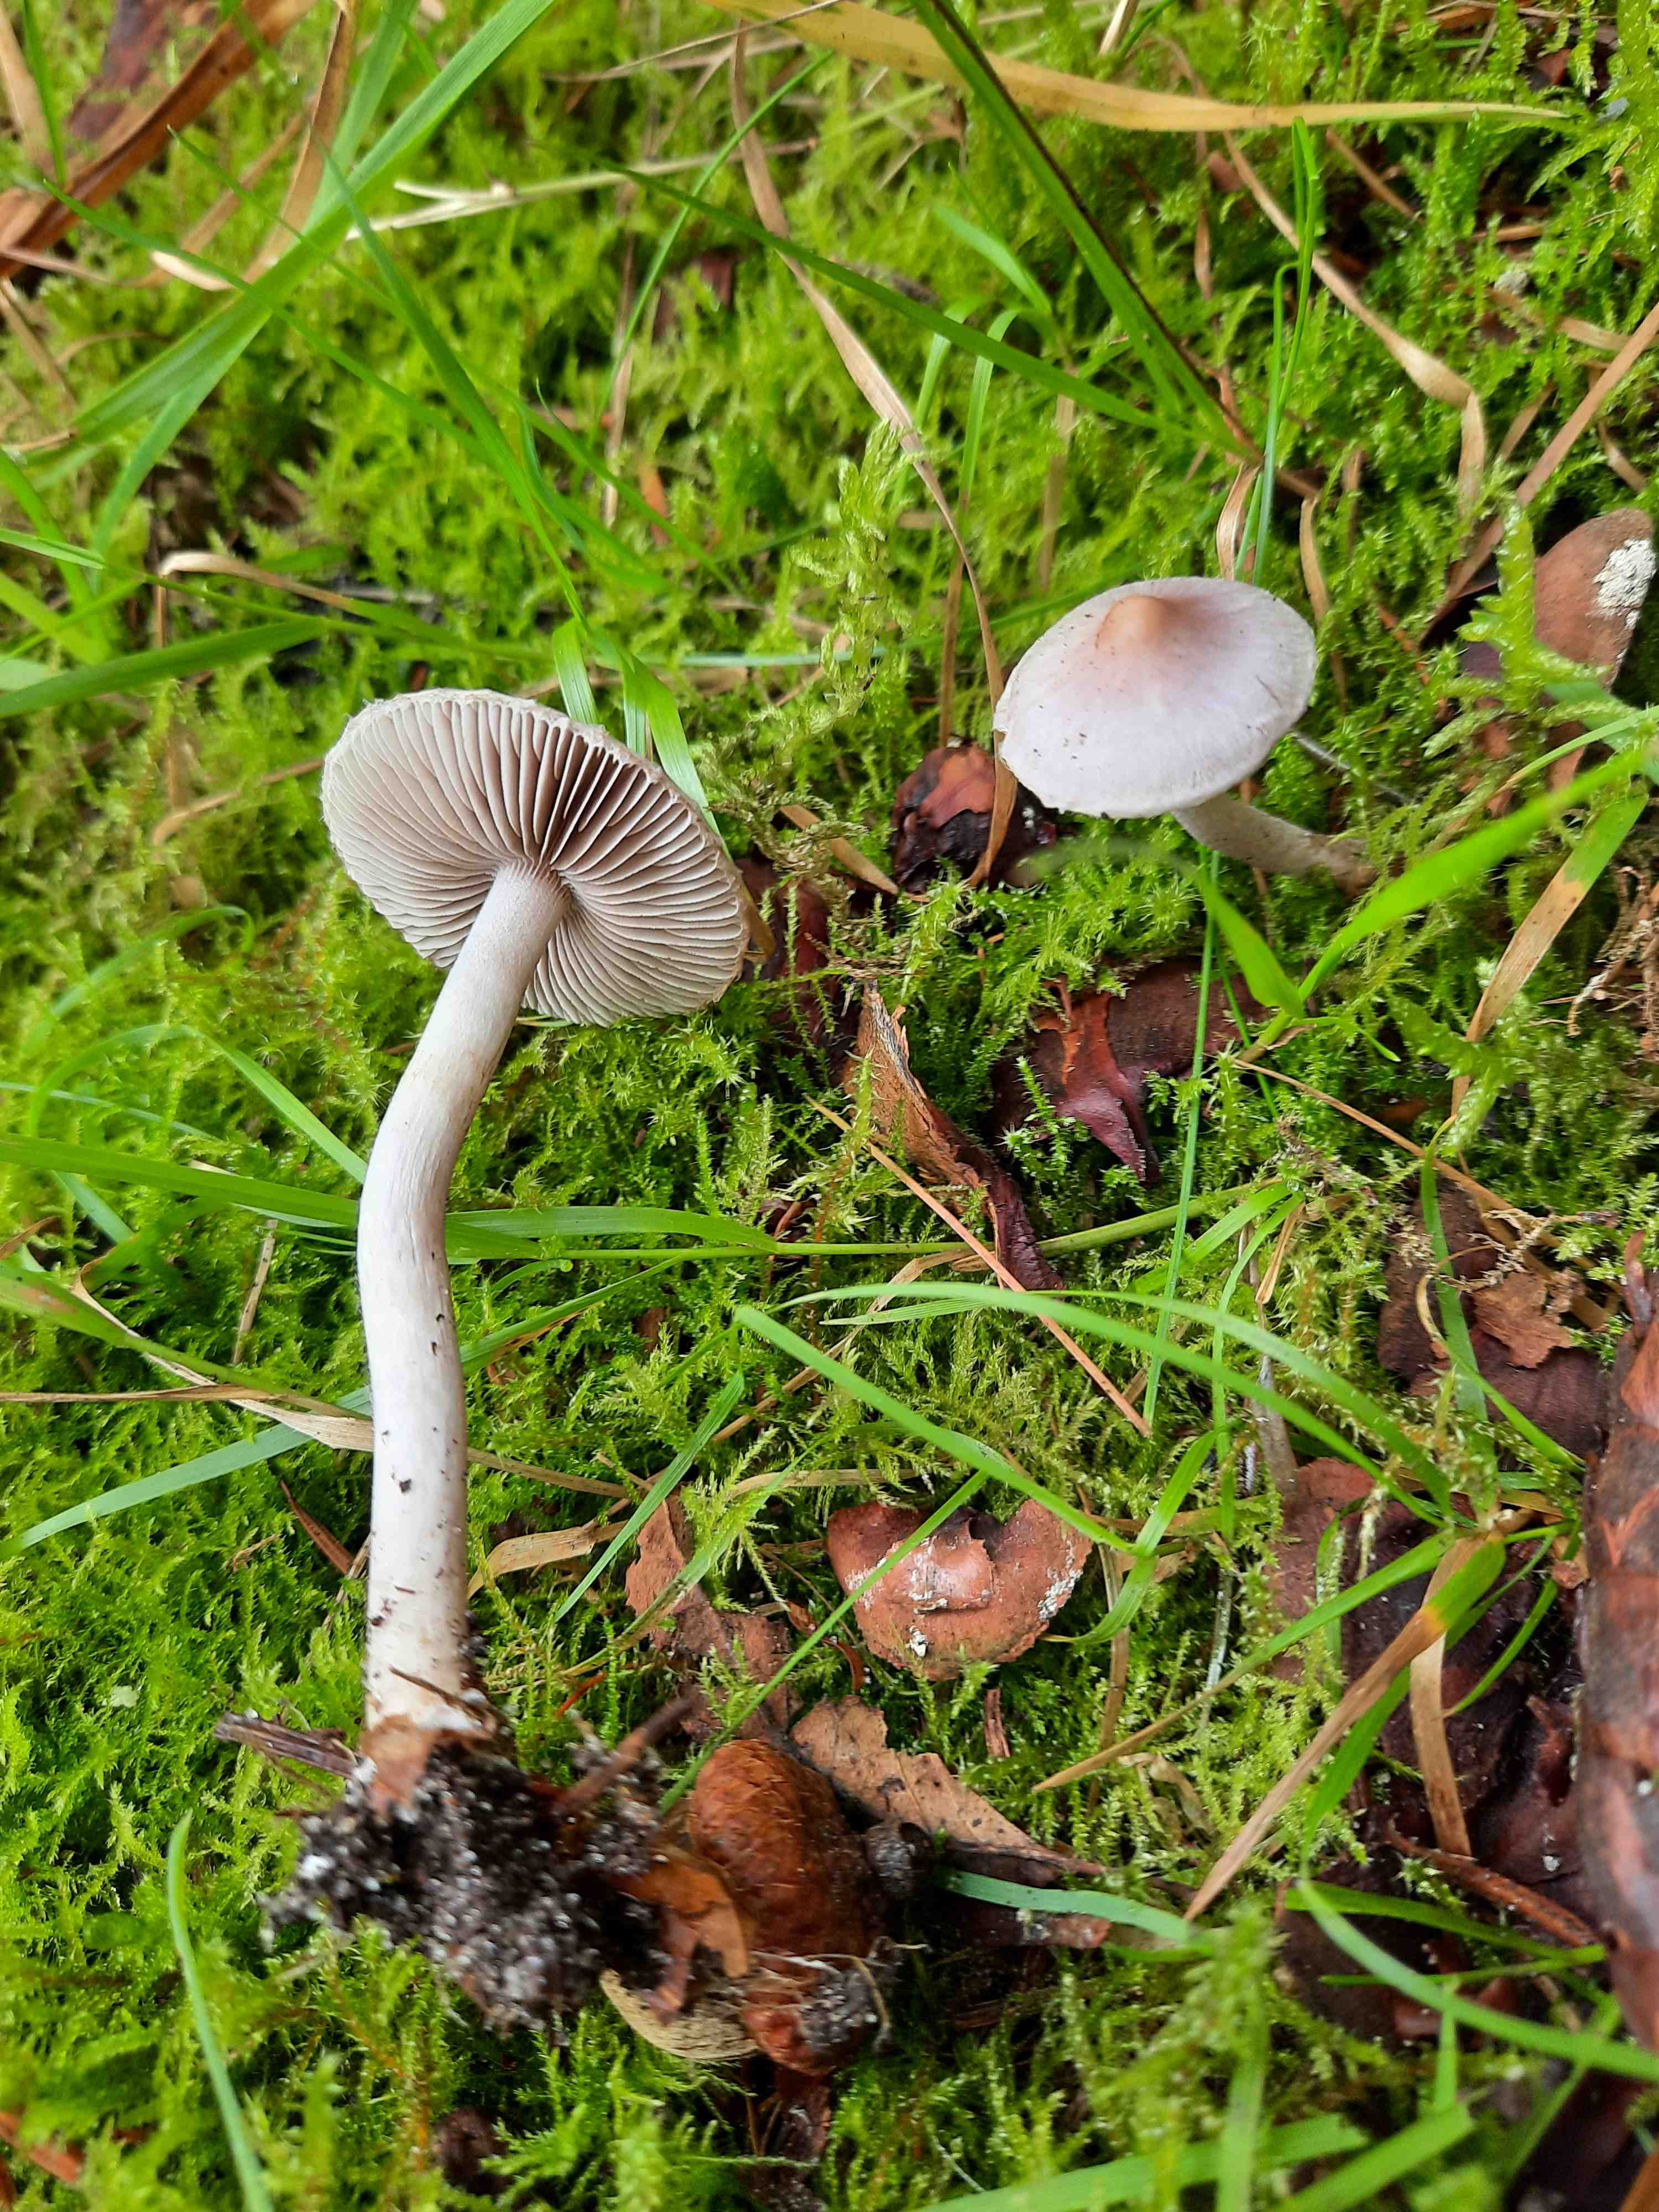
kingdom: Fungi
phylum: Basidiomycota
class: Agaricomycetes
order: Agaricales
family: Inocybaceae
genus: Inocybe
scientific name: Inocybe geophylla
